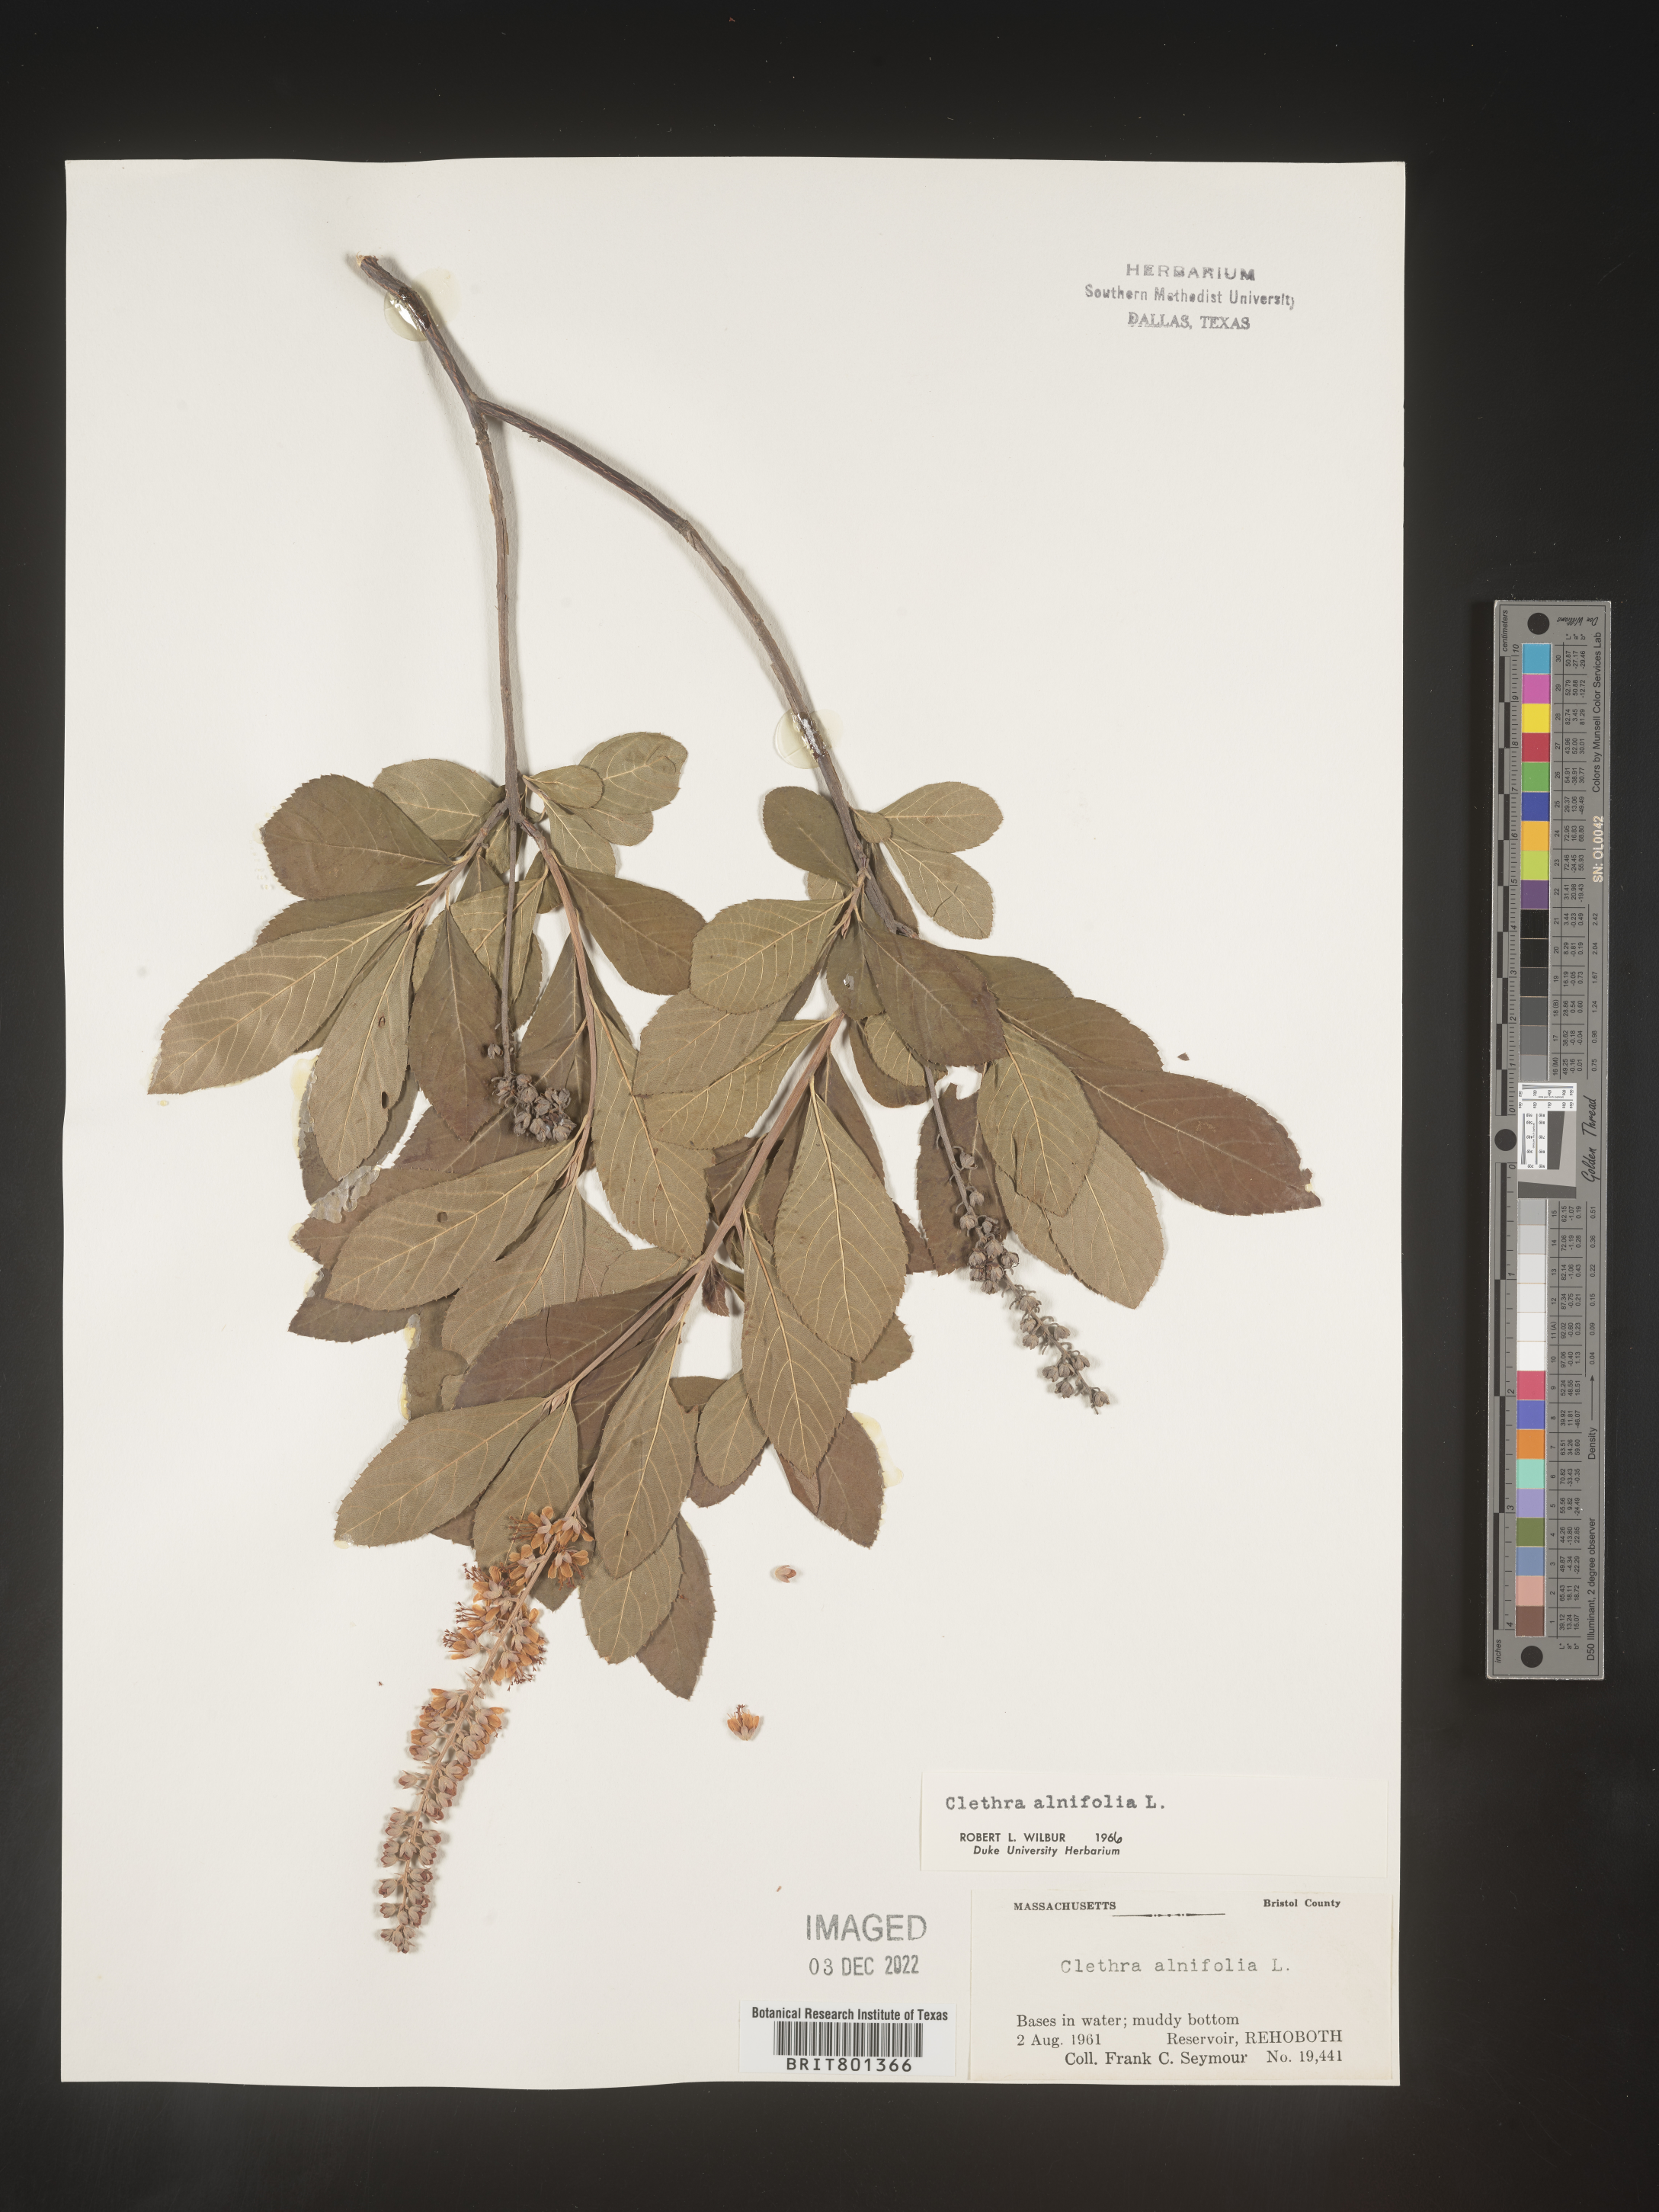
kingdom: Plantae
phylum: Tracheophyta
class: Magnoliopsida
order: Ericales
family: Clethraceae
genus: Clethra
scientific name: Clethra alnifolia
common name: Sweet pepperbush
